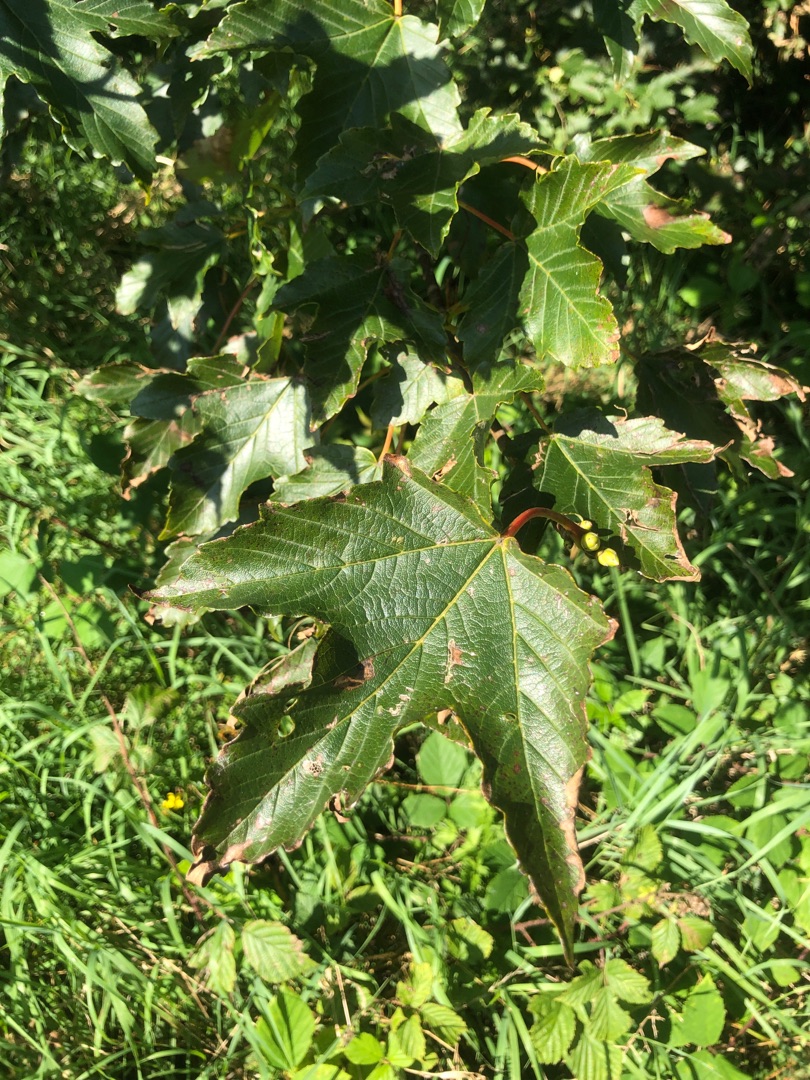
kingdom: Plantae
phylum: Tracheophyta
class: Magnoliopsida
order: Sapindales
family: Sapindaceae
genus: Acer
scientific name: Acer pseudoplatanus
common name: Ahorn
